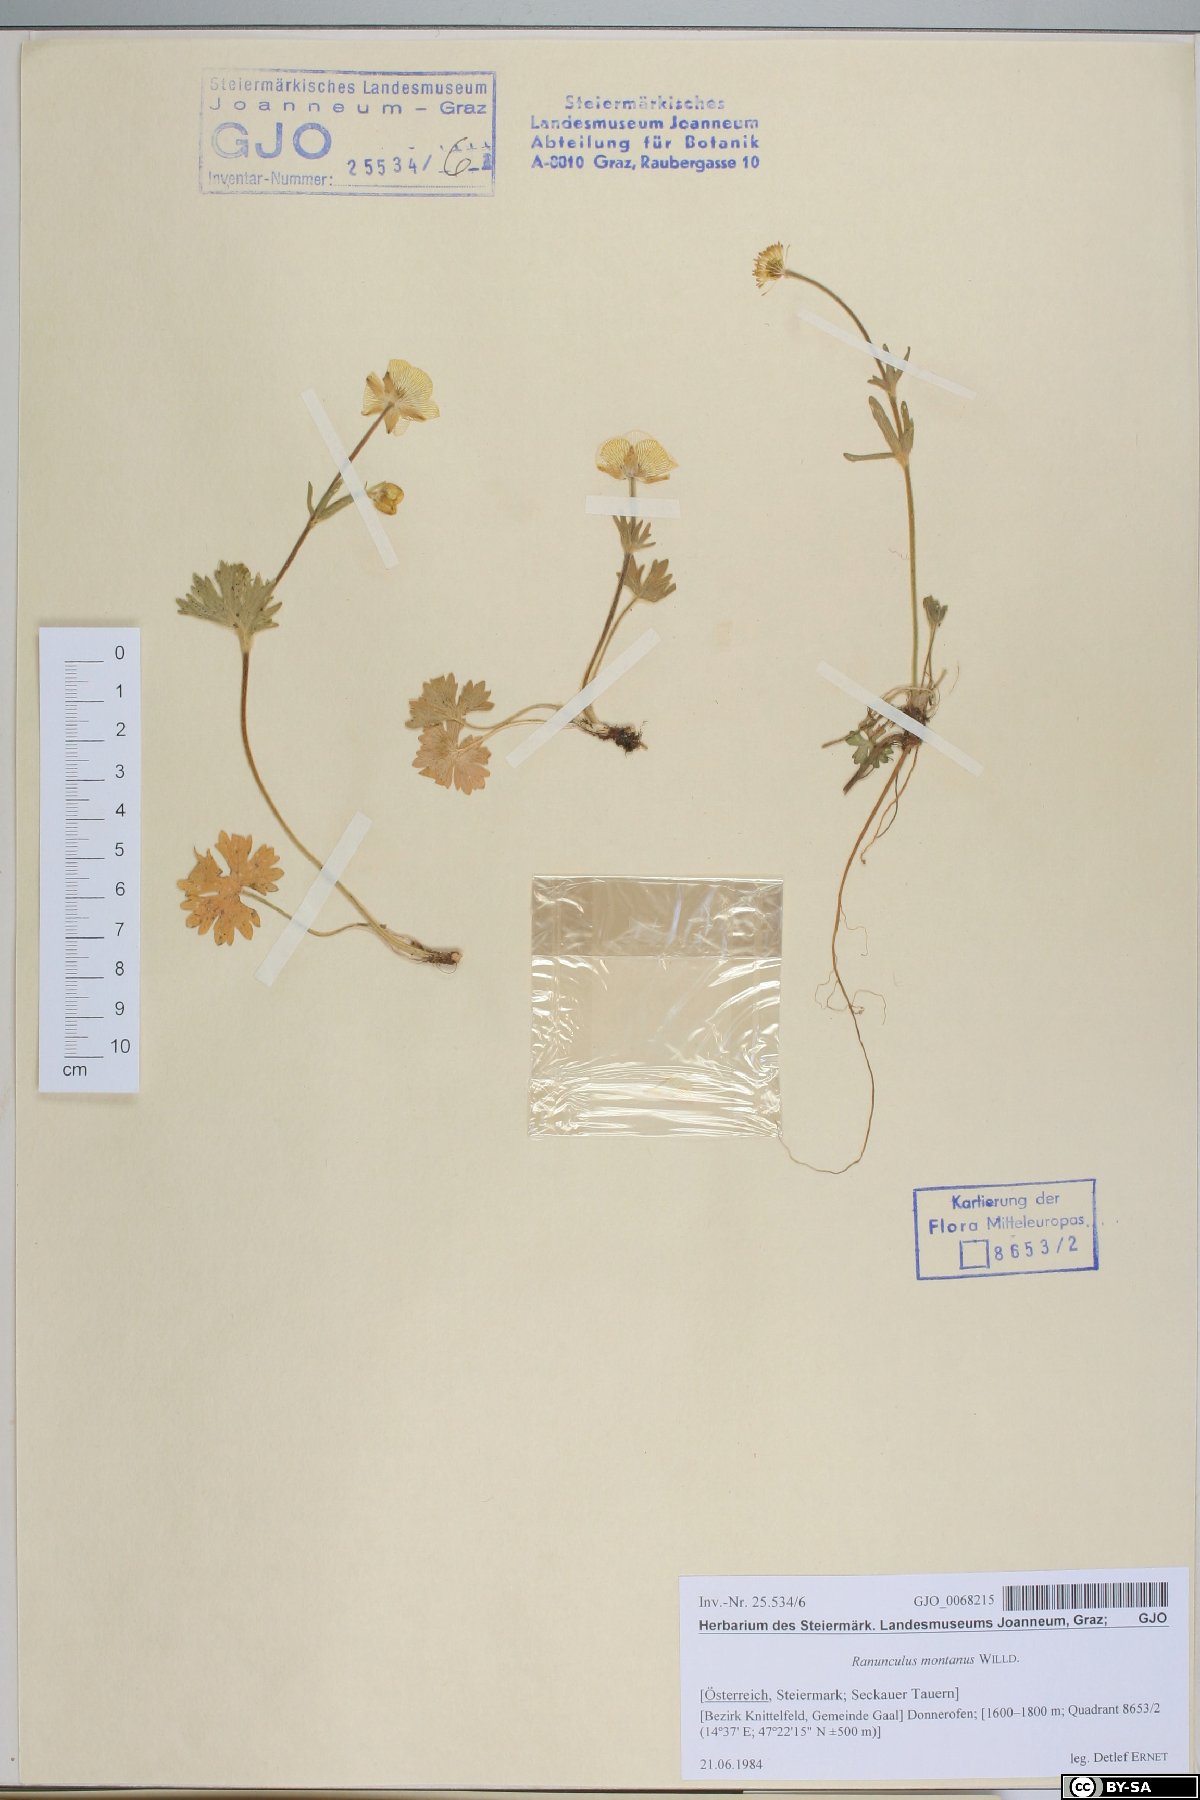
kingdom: Plantae
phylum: Tracheophyta
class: Magnoliopsida
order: Ranunculales
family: Ranunculaceae
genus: Ranunculus
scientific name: Ranunculus montanus
